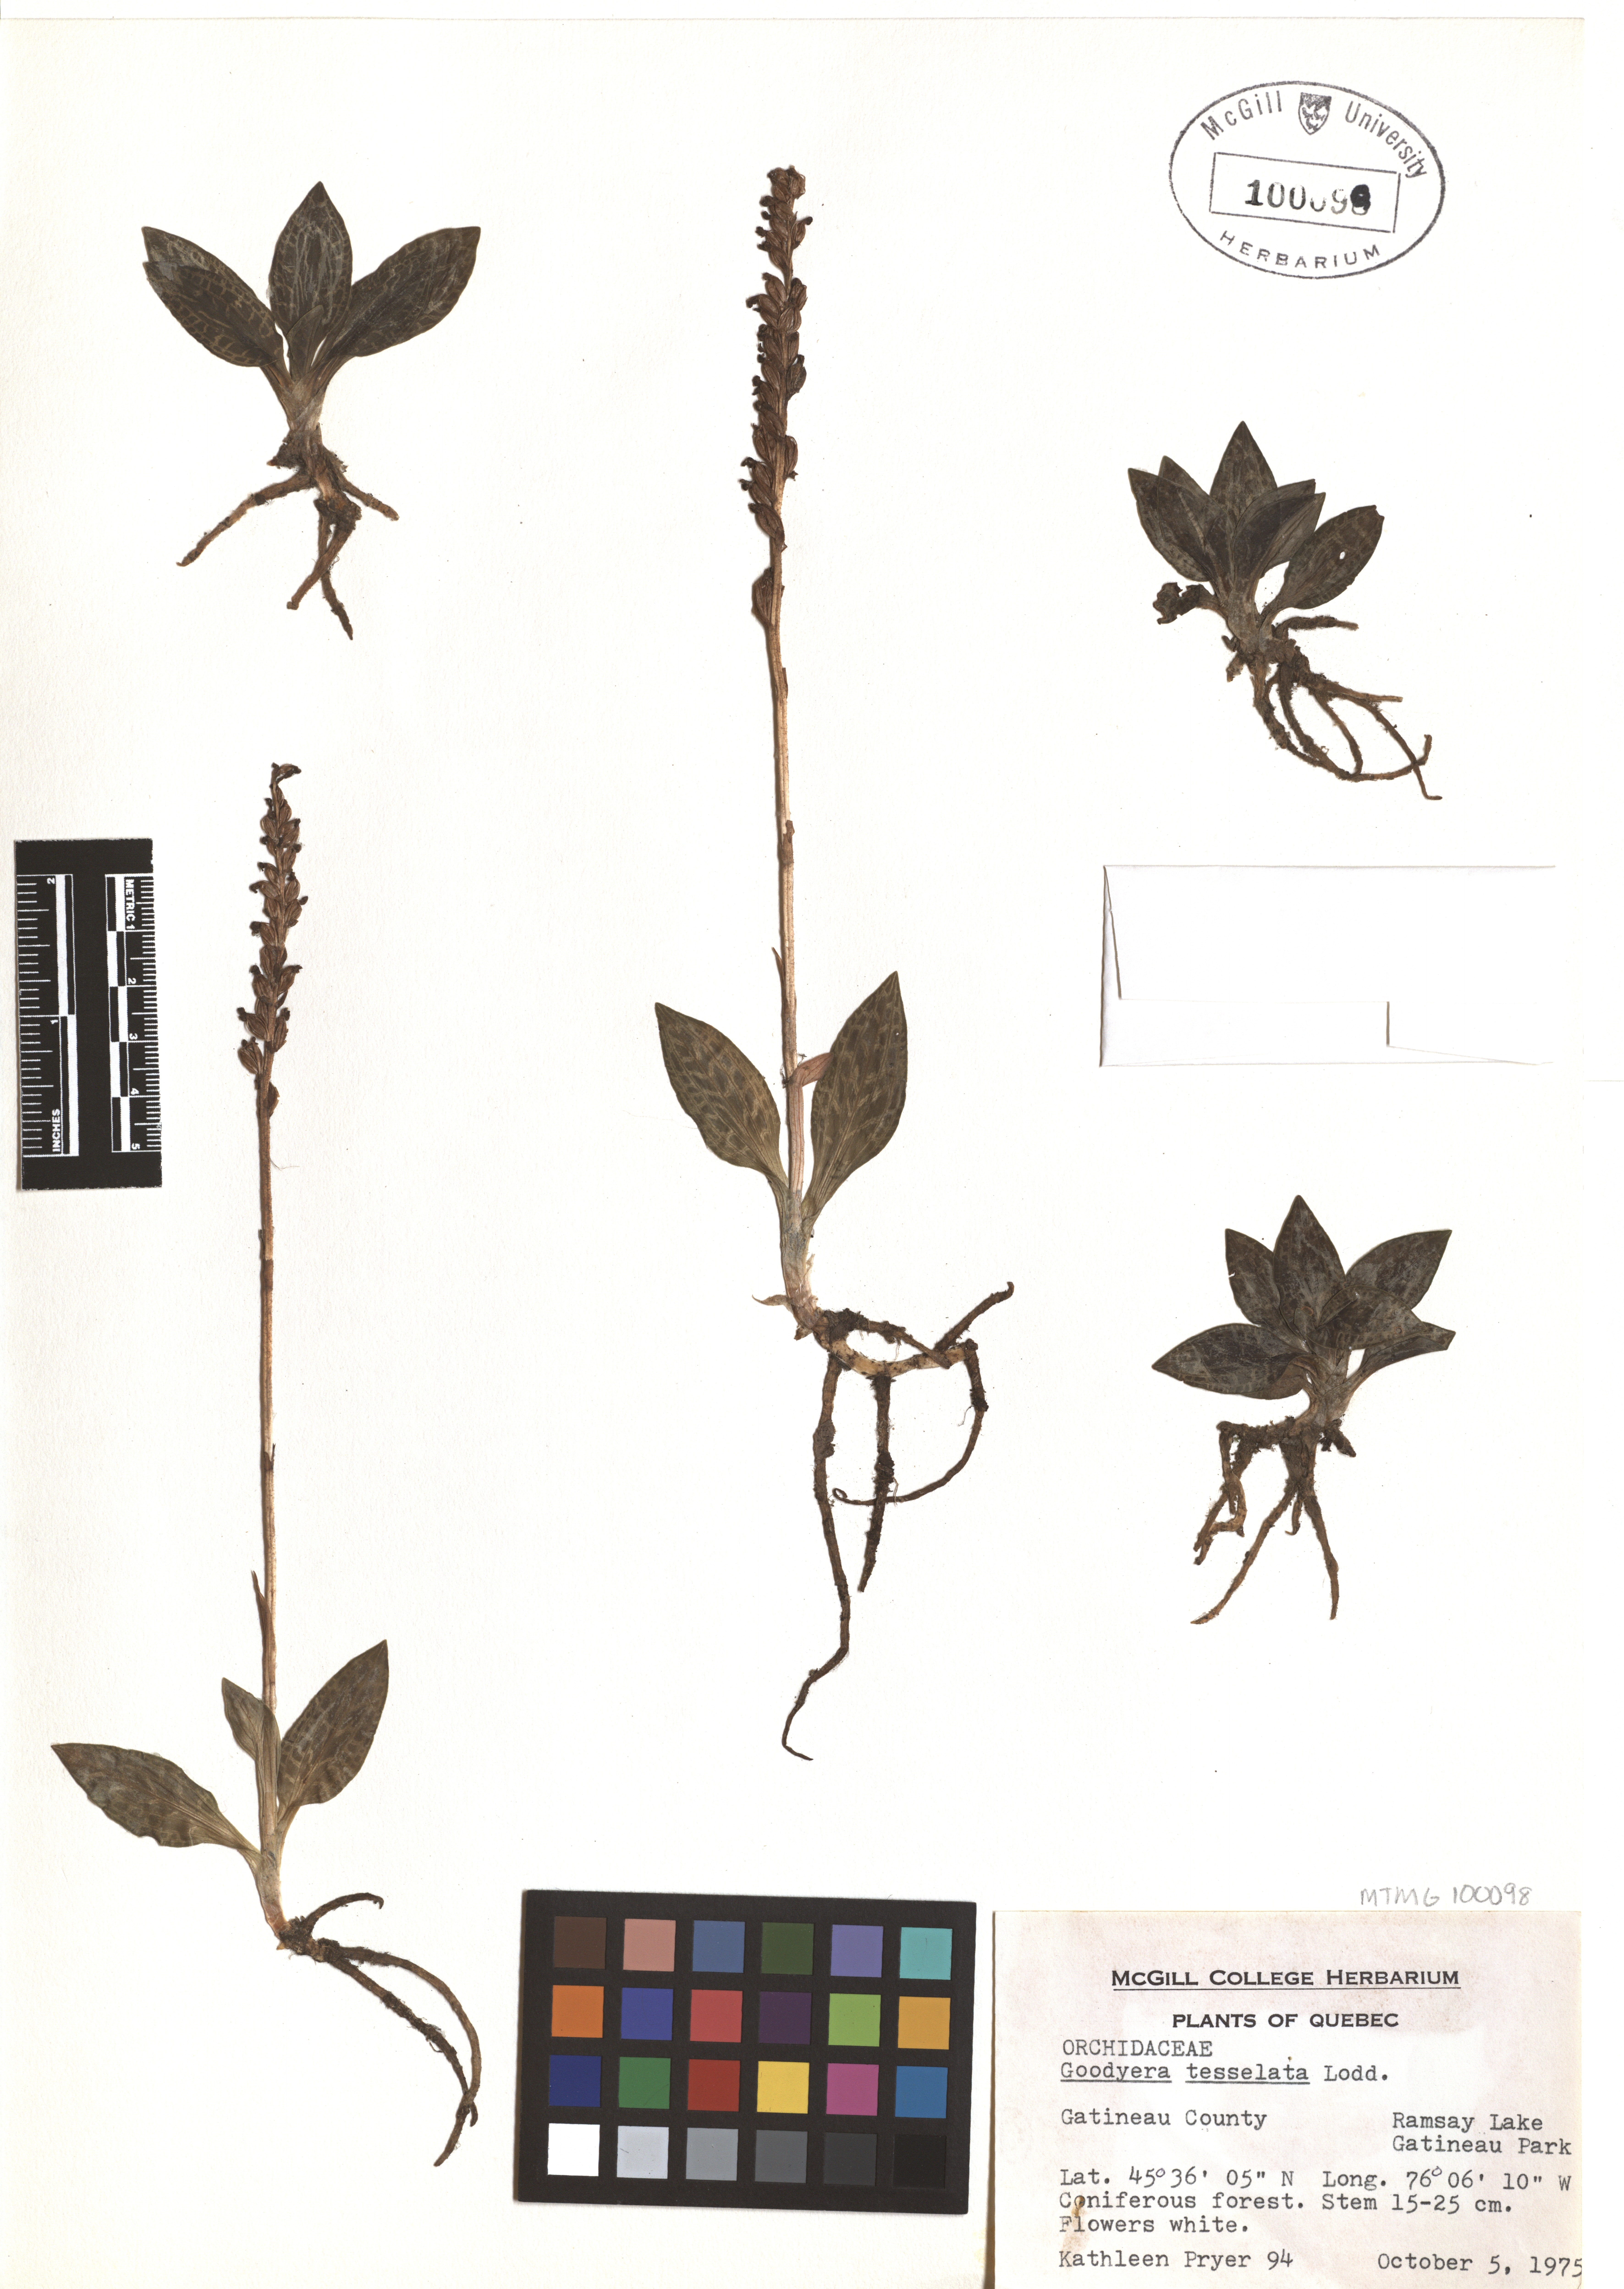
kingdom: Plantae
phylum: Tracheophyta
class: Liliopsida
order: Asparagales
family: Orchidaceae
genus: Goodyera
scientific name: Goodyera tesselata
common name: Checkered rattlesnake-plantain
